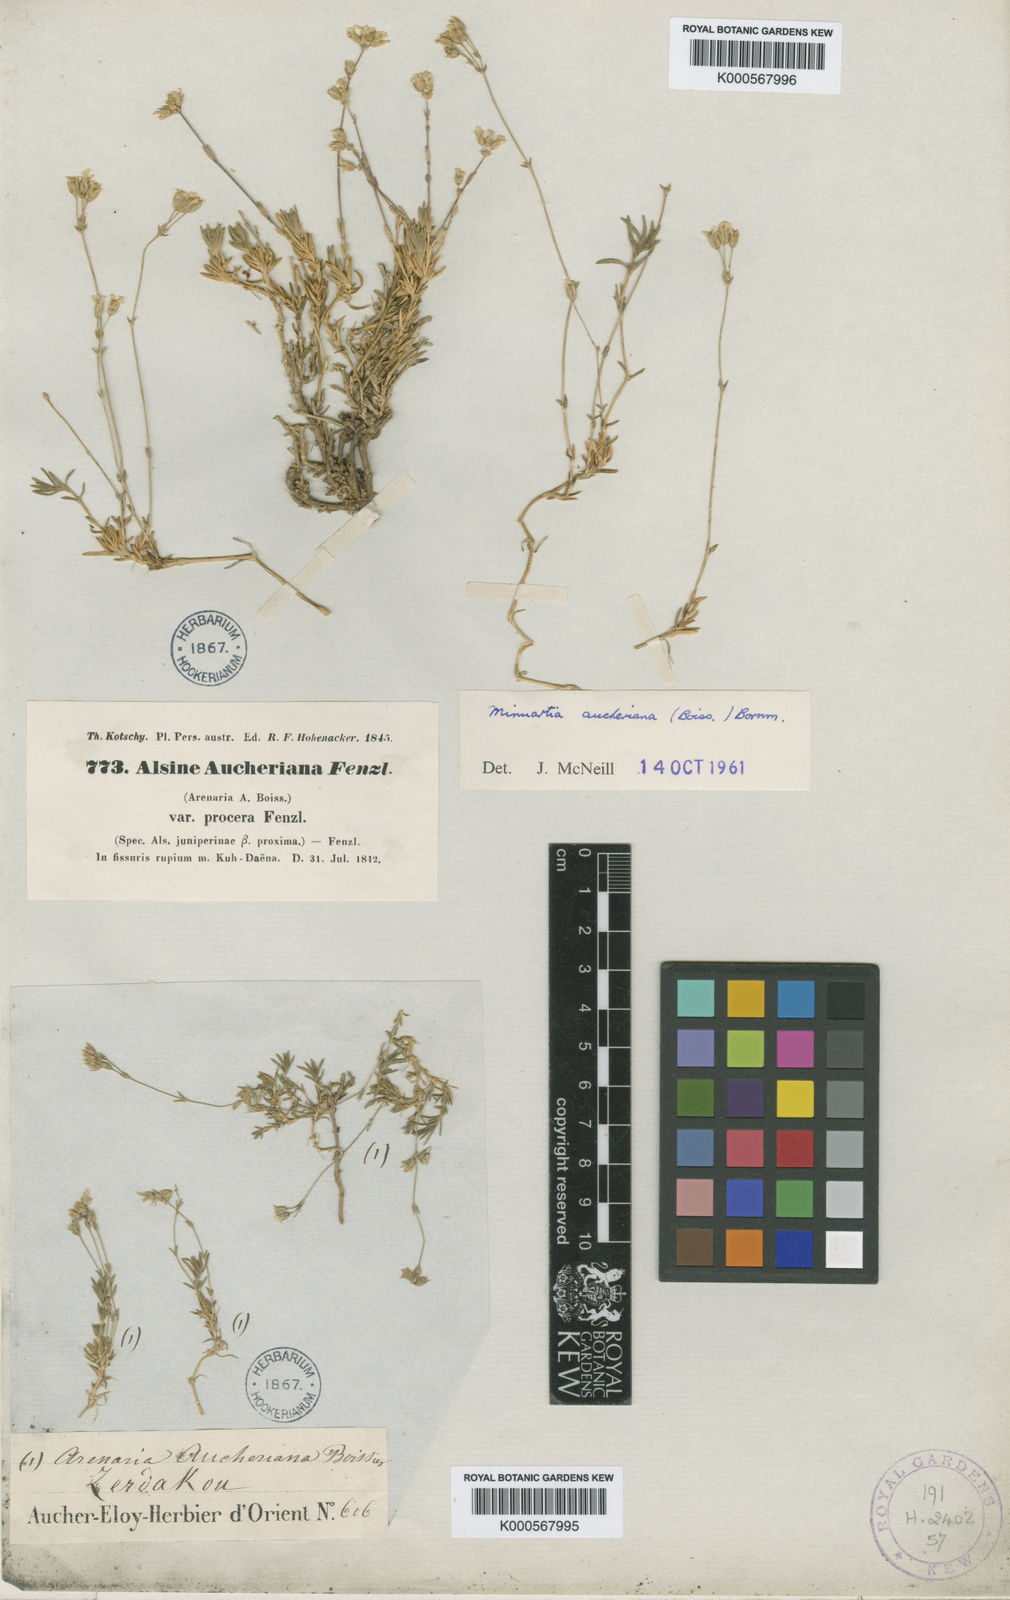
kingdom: Plantae
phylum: Tracheophyta
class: Magnoliopsida
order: Caryophyllales
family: Caryophyllaceae
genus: Sabulina
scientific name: Sabulina aucheriana
